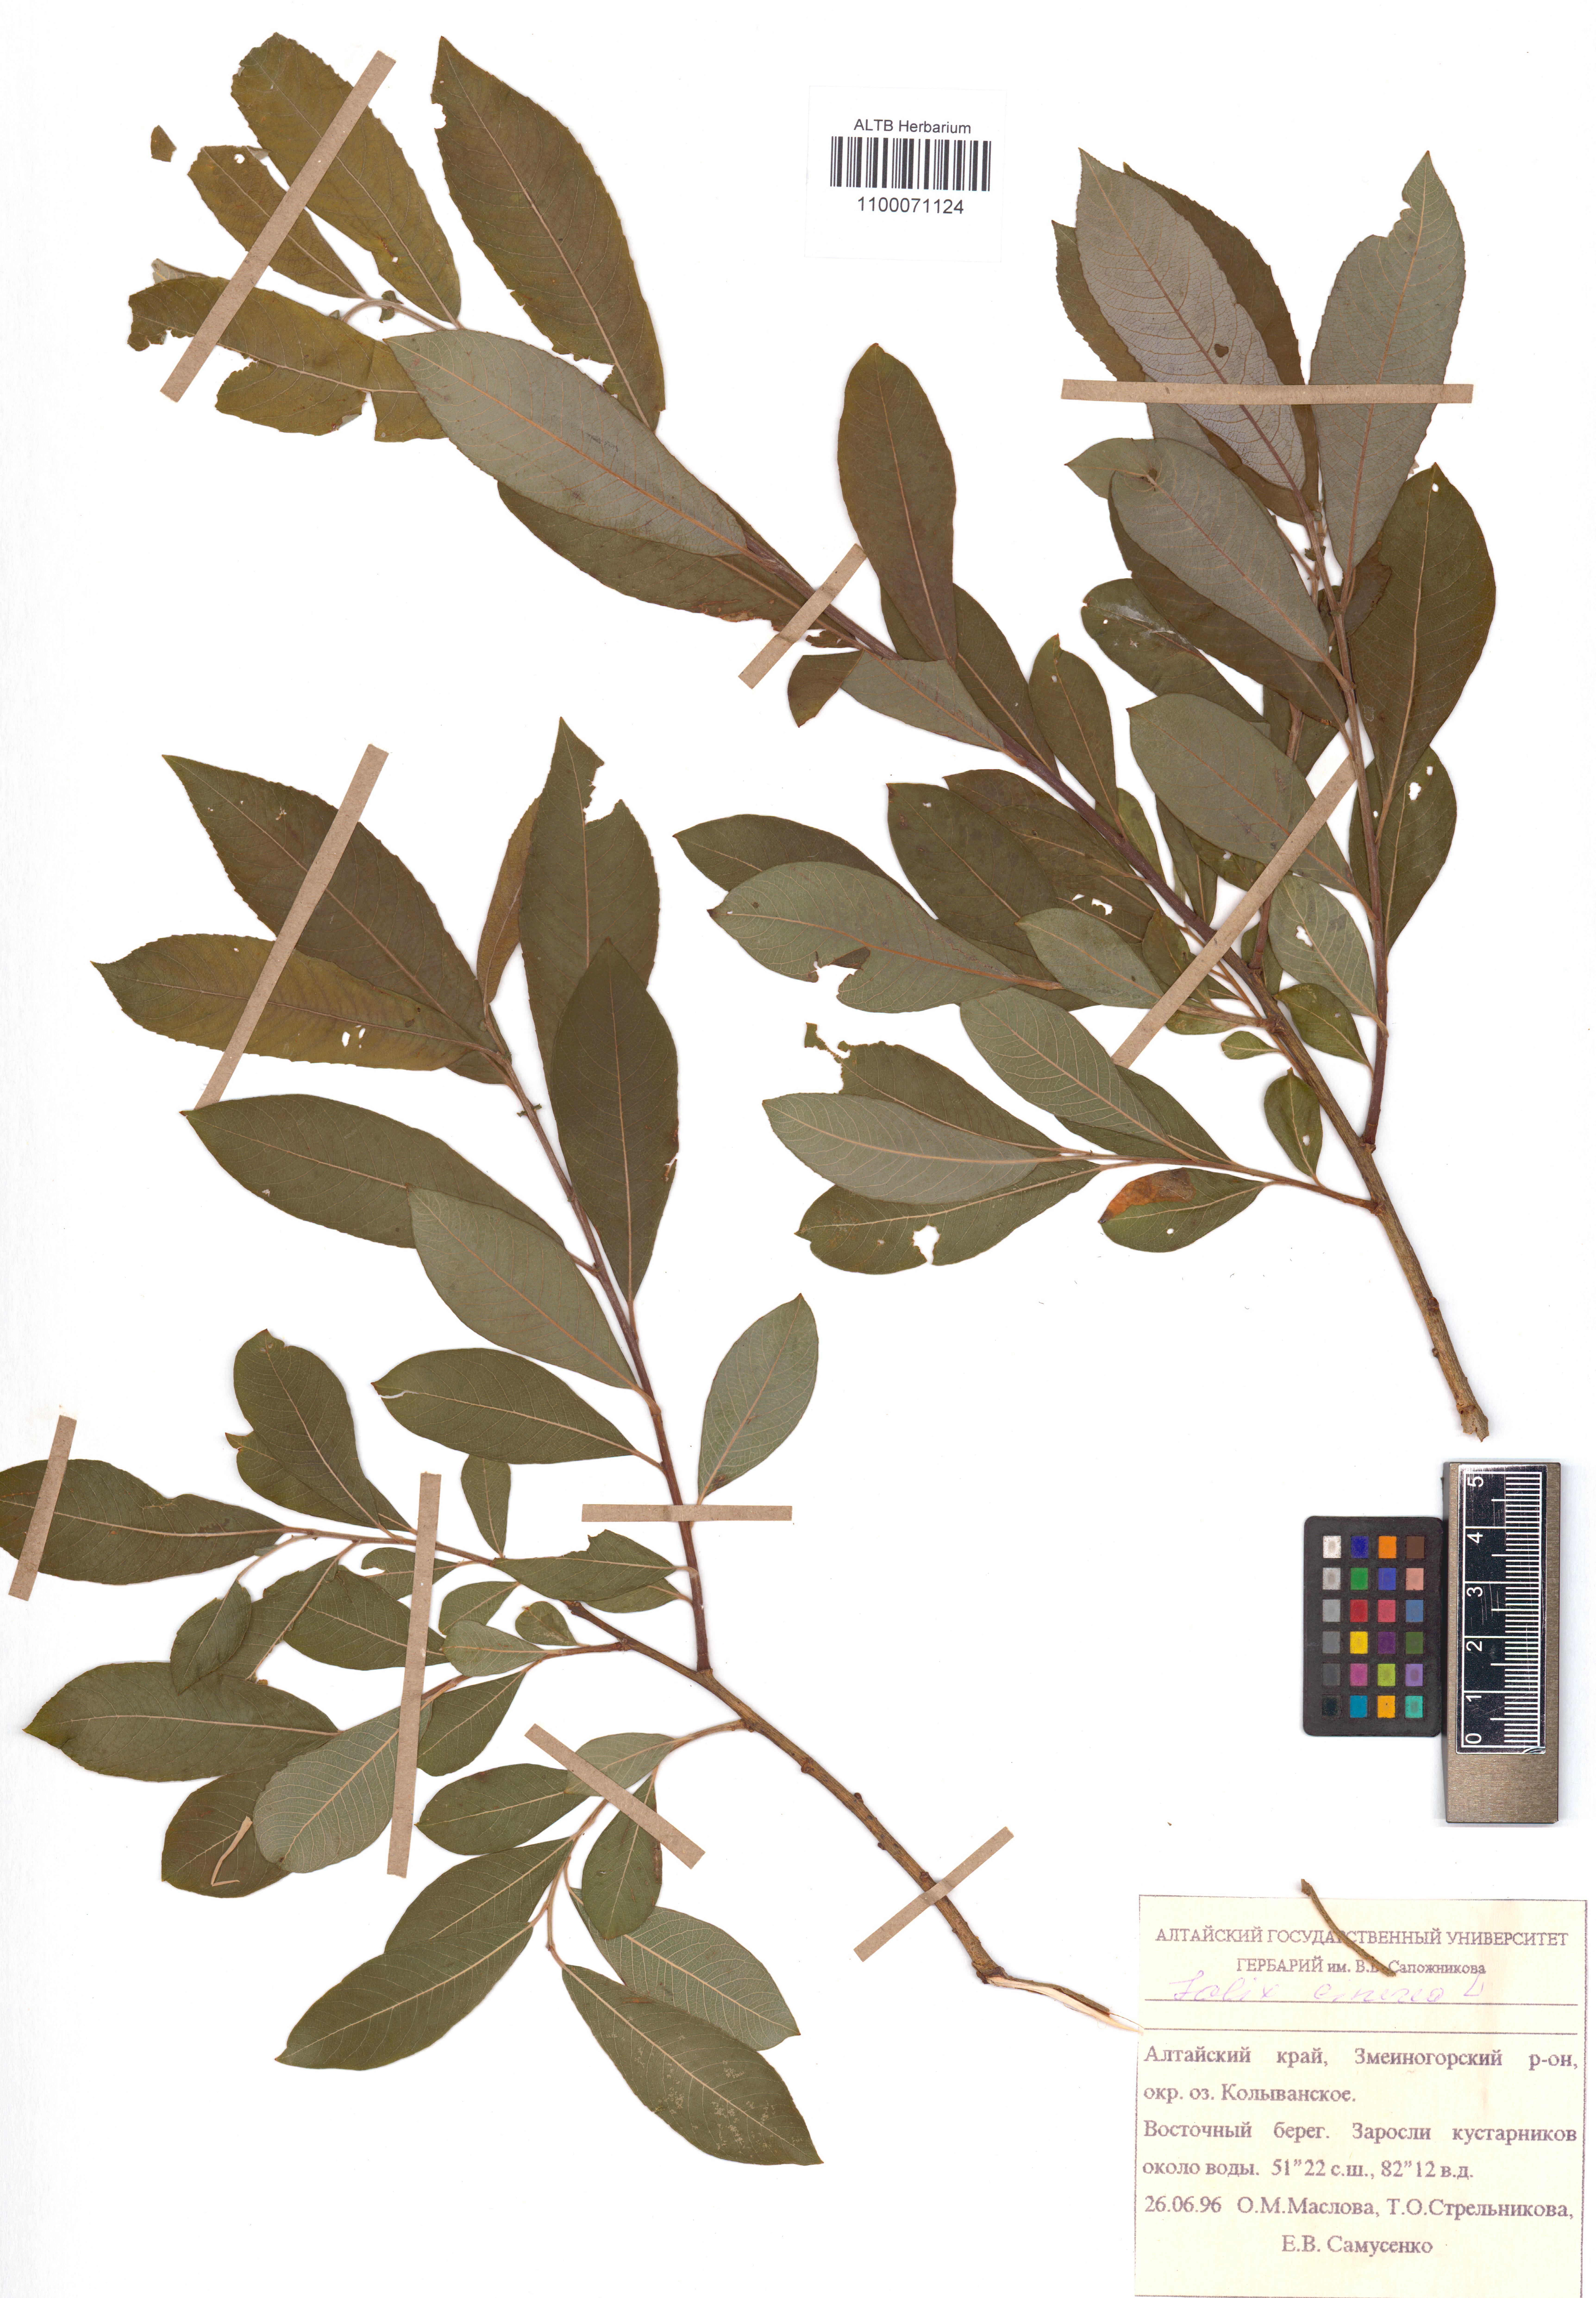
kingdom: Plantae
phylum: Tracheophyta
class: Magnoliopsida
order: Malpighiales
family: Salicaceae
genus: Salix
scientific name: Salix cinerea
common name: Common sallow
